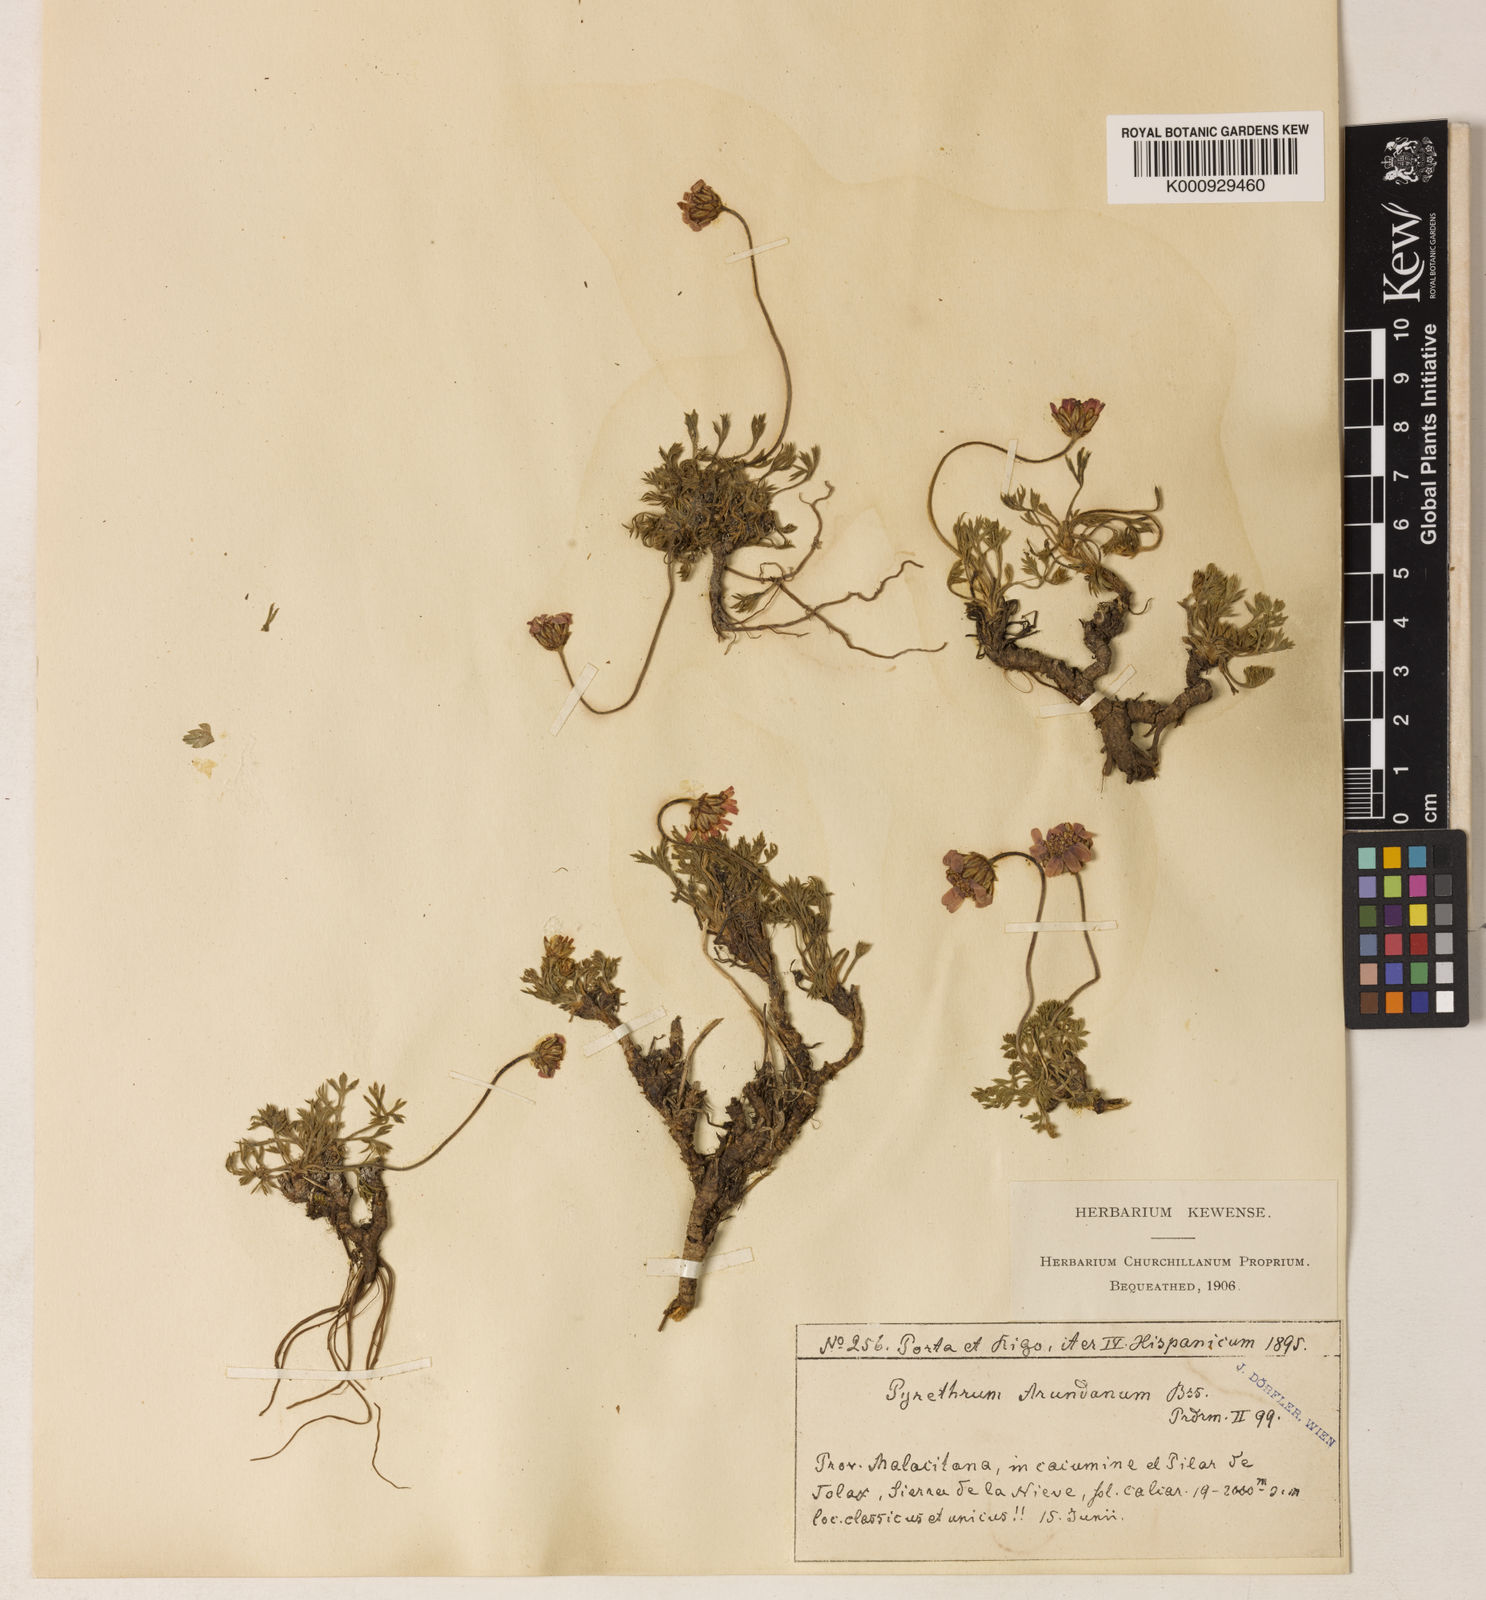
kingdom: Plantae
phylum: Tracheophyta
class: Magnoliopsida
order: Asterales
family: Asteraceae
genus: Rhodanthemum
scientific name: Rhodanthemum arundanum
